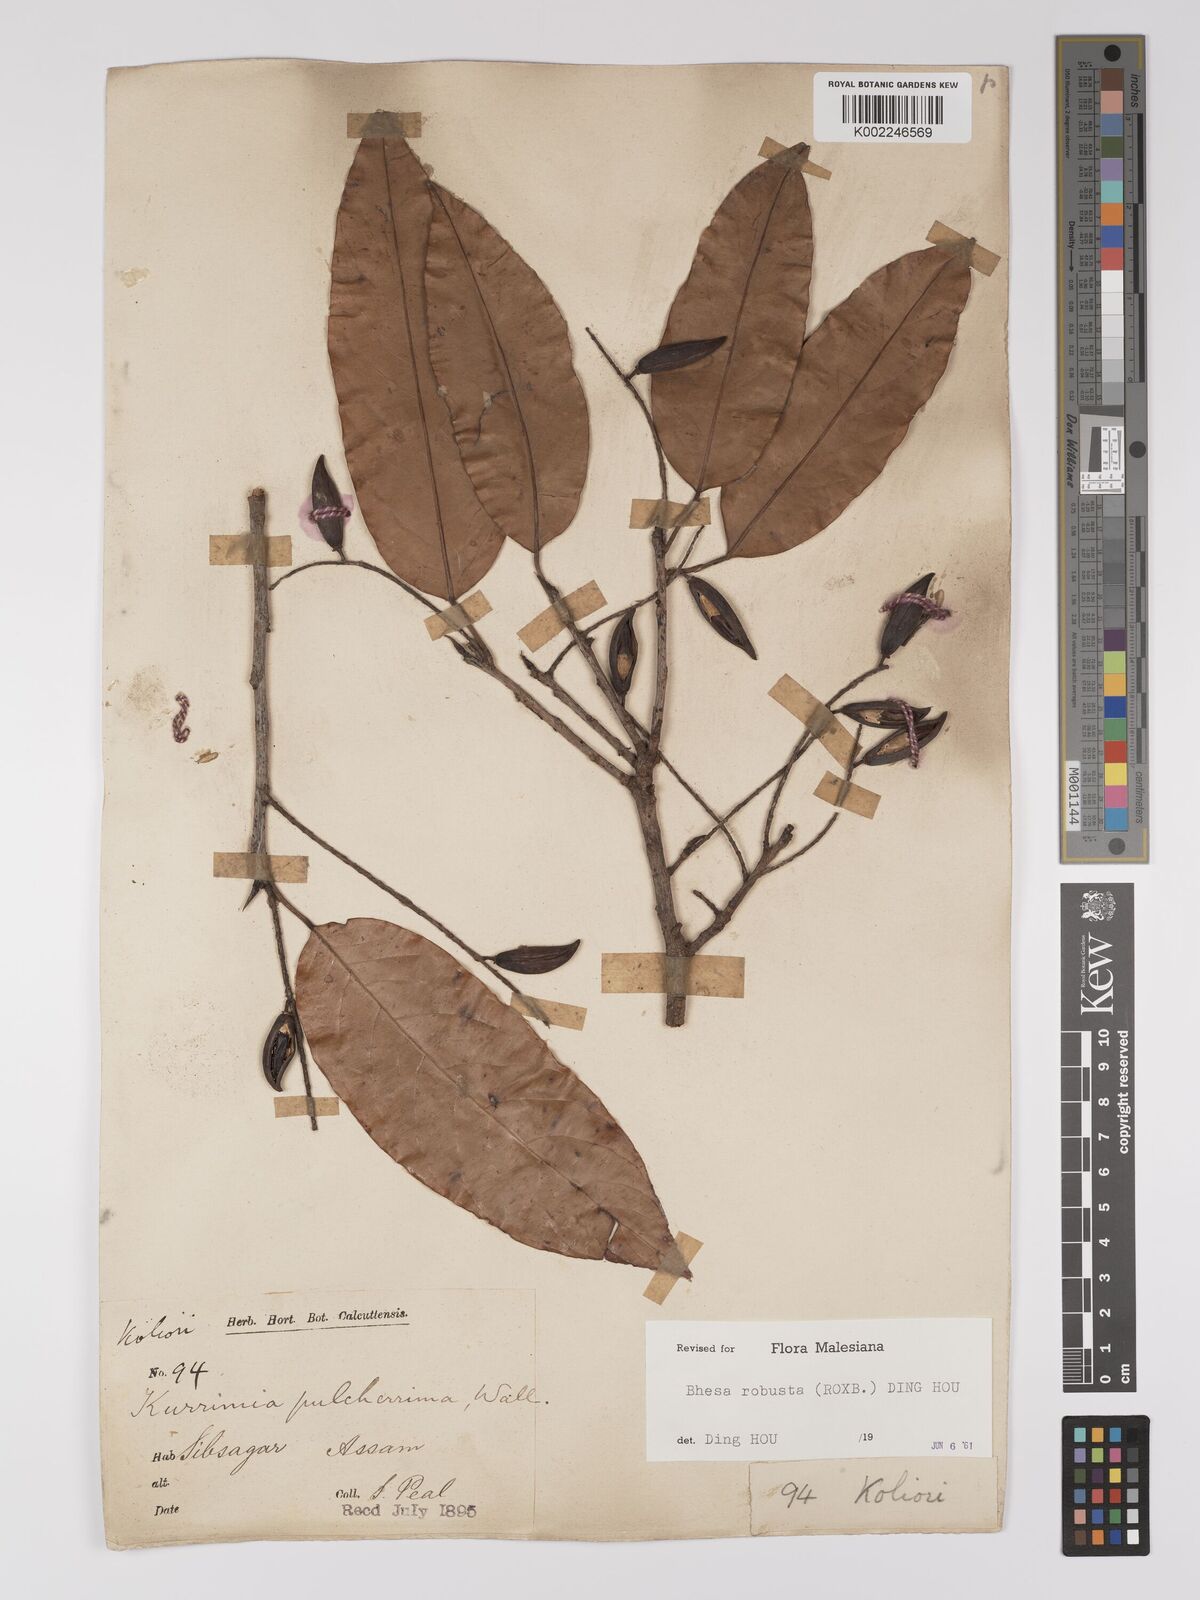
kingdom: Plantae
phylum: Tracheophyta
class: Magnoliopsida
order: Malpighiales
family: Centroplacaceae
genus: Bhesa
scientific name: Bhesa robusta
